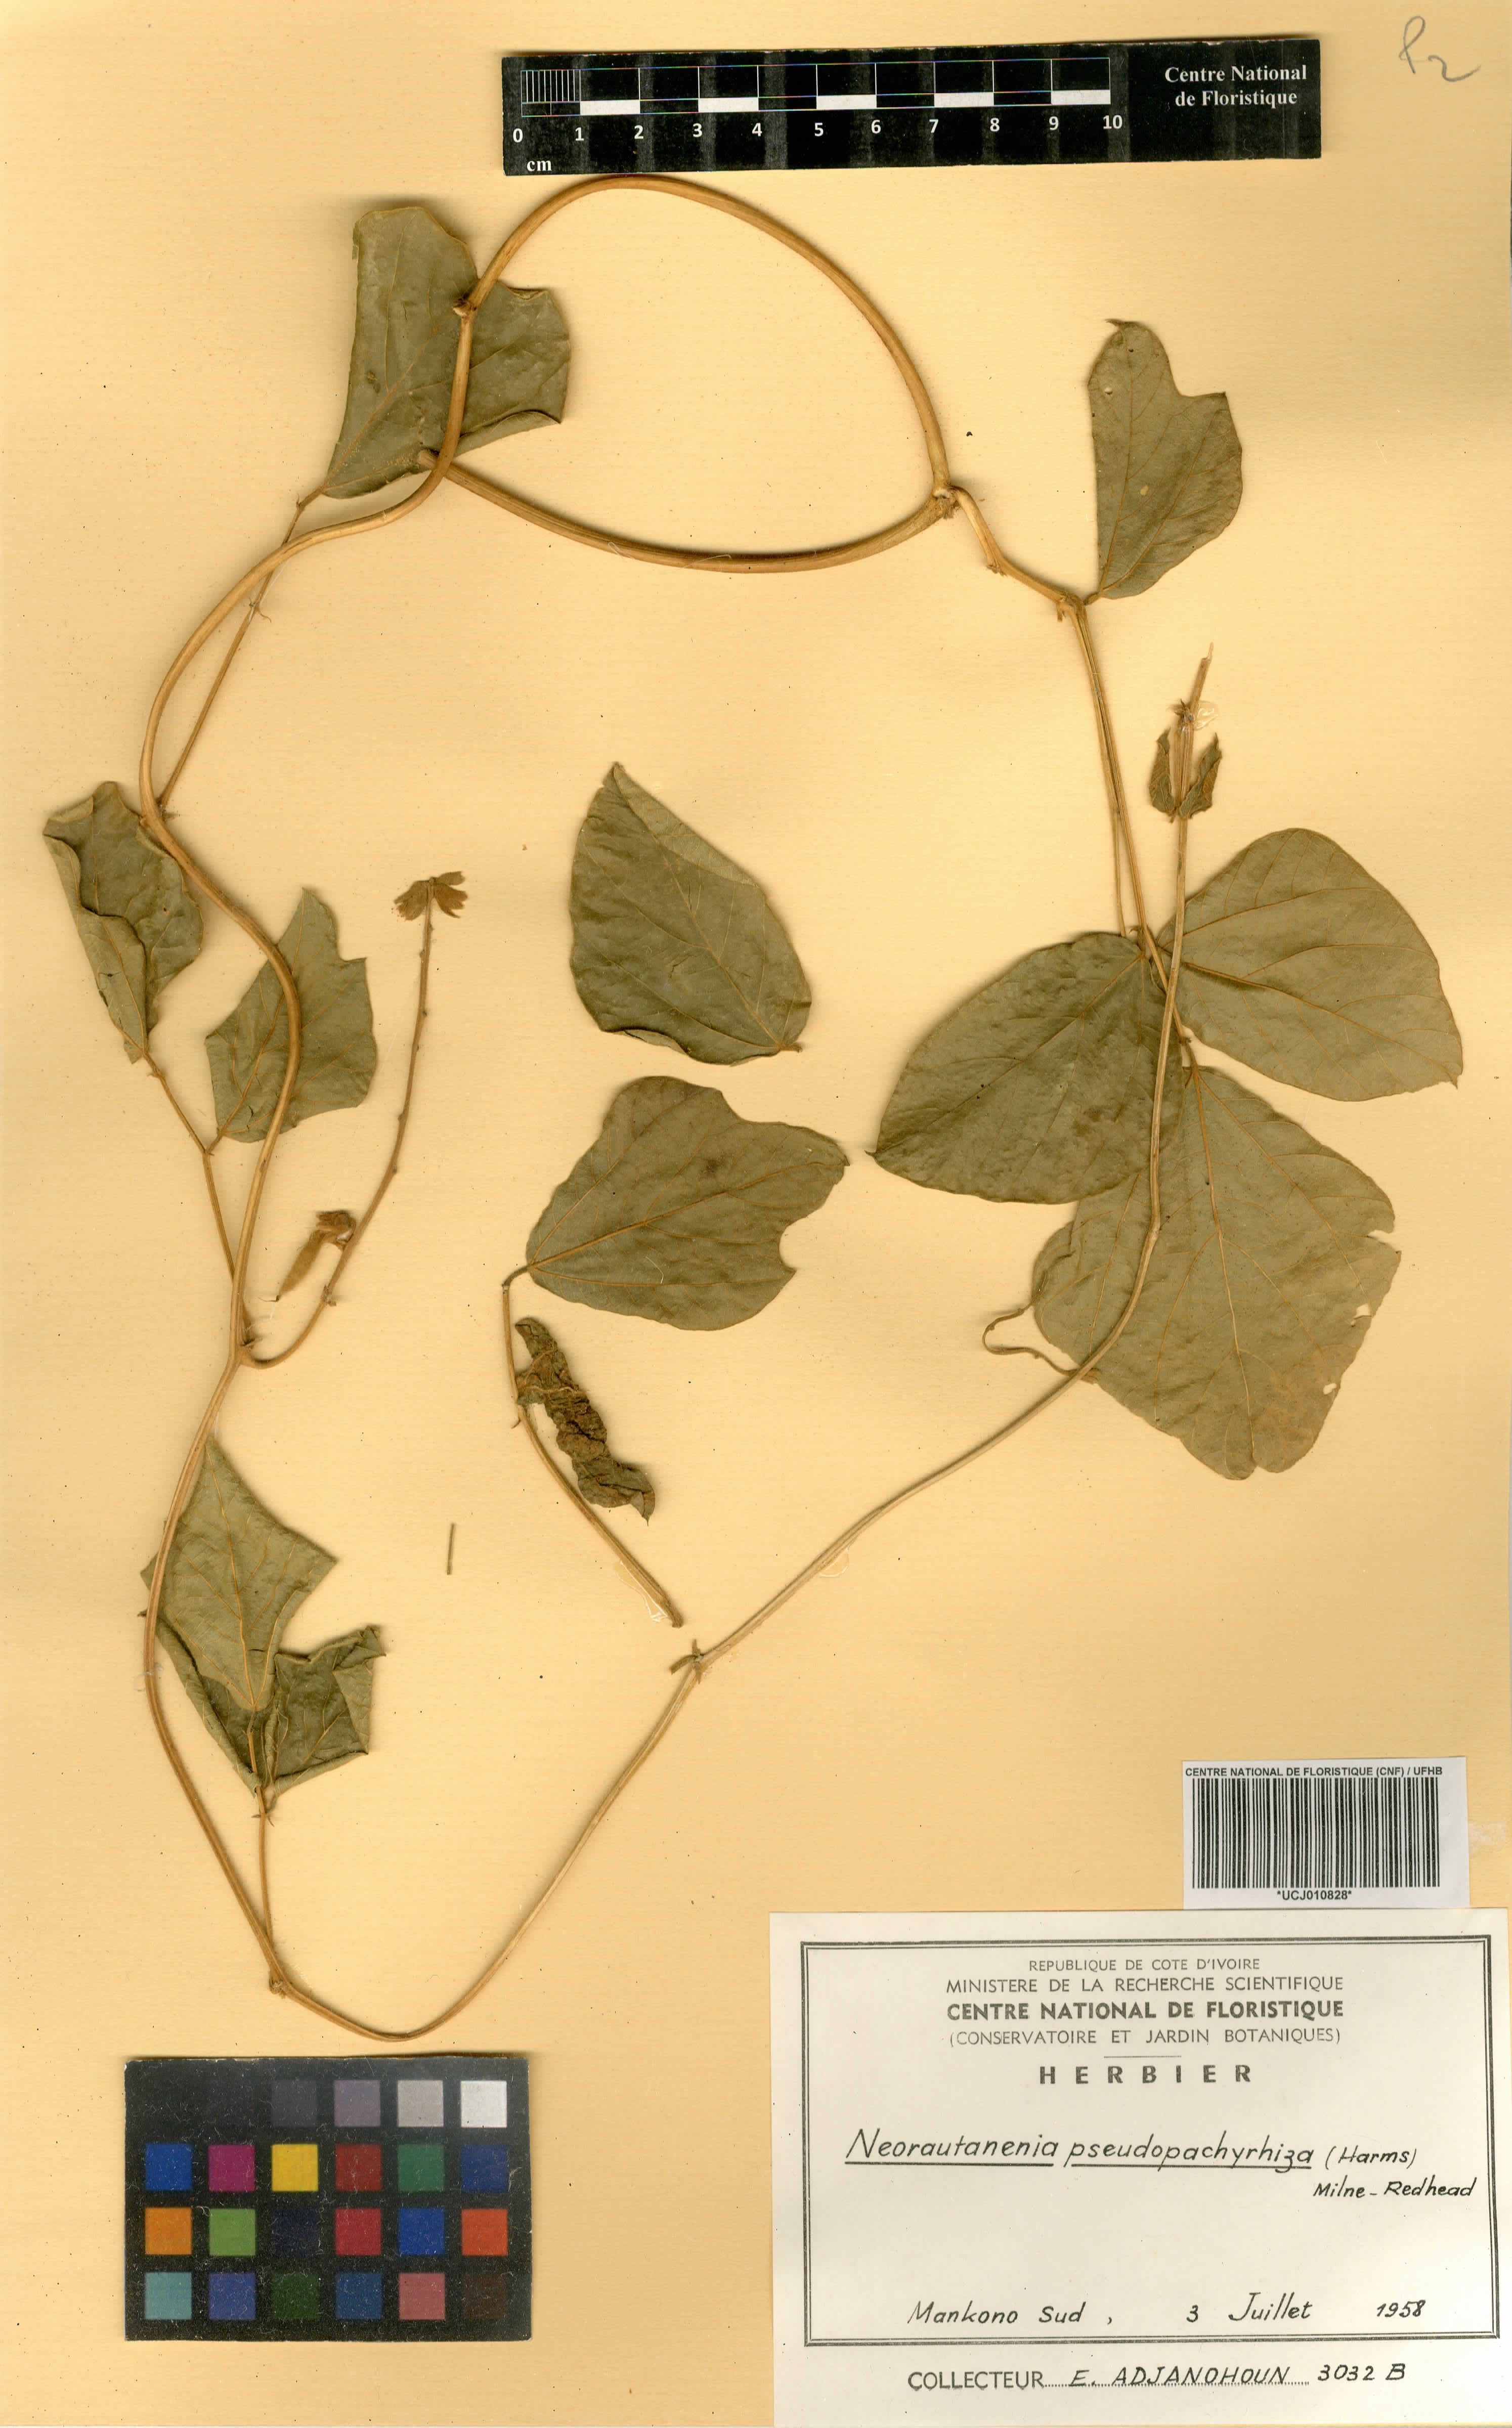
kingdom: Plantae
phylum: Tracheophyta
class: Magnoliopsida
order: Fabales
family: Fabaceae
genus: Neorautanenia
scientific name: Neorautanenia mitis
